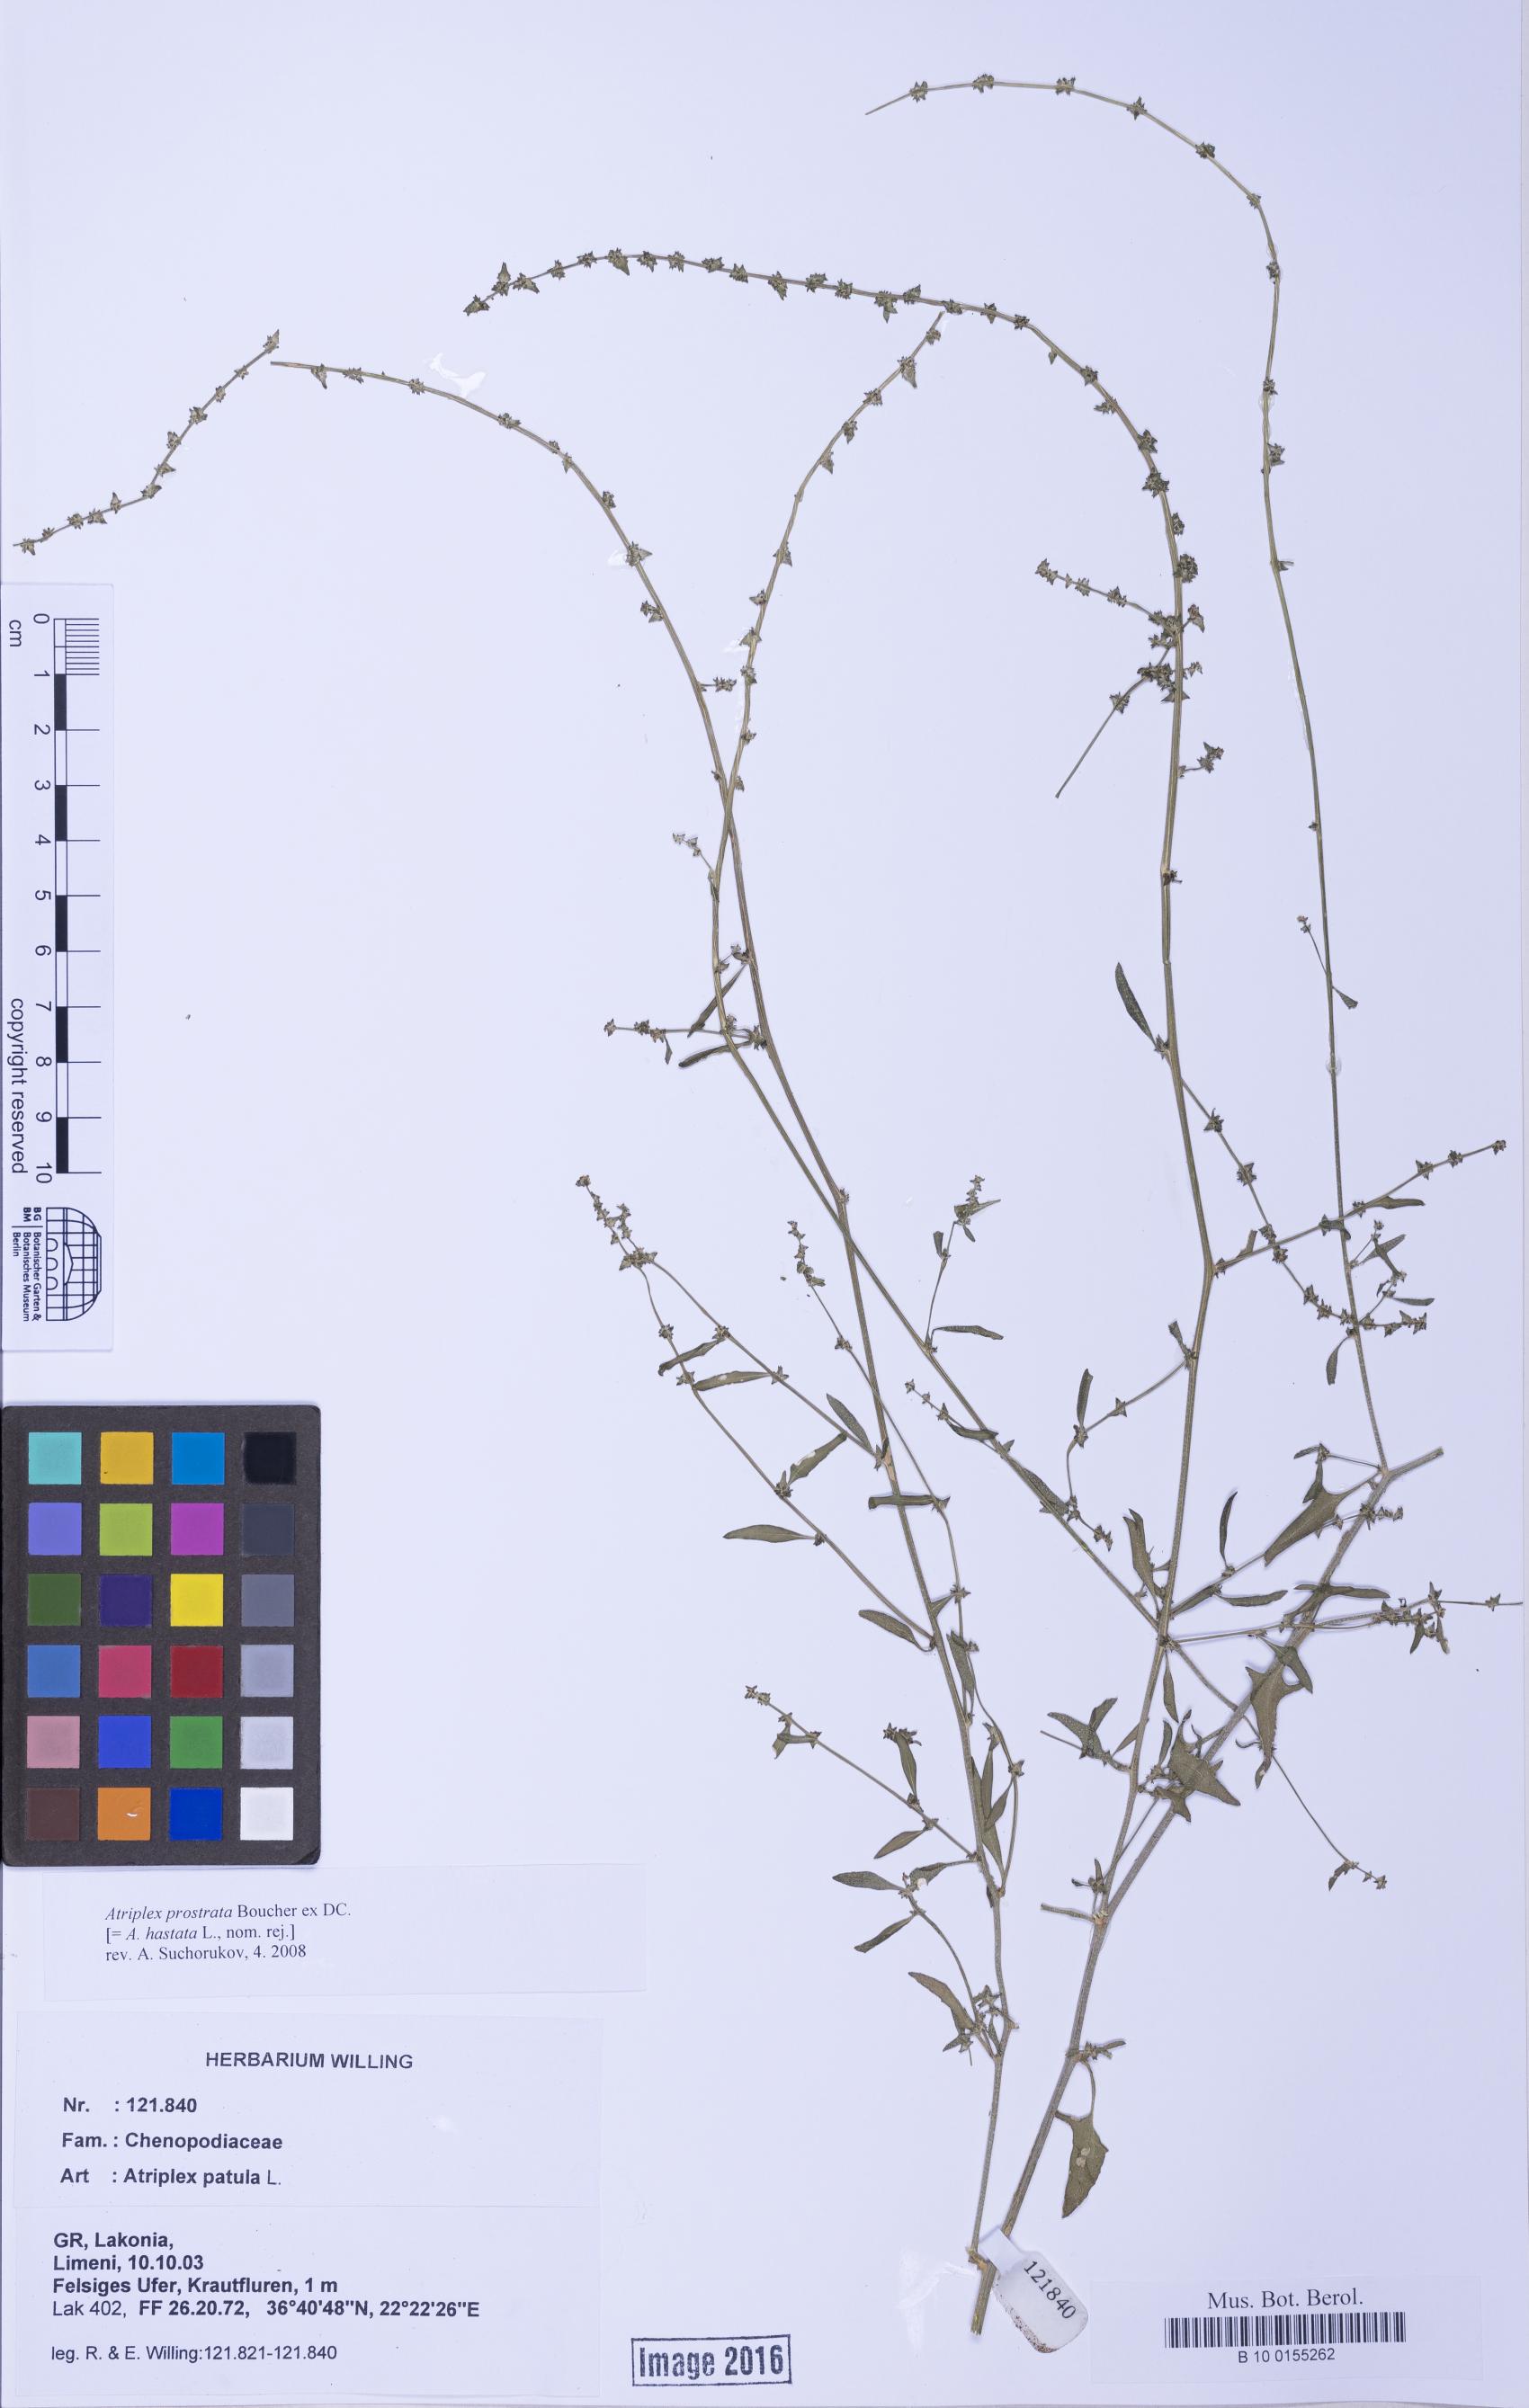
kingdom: Plantae
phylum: Tracheophyta
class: Magnoliopsida
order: Caryophyllales
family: Amaranthaceae
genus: Atriplex
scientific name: Atriplex prostrata
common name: Spear-leaved orache
